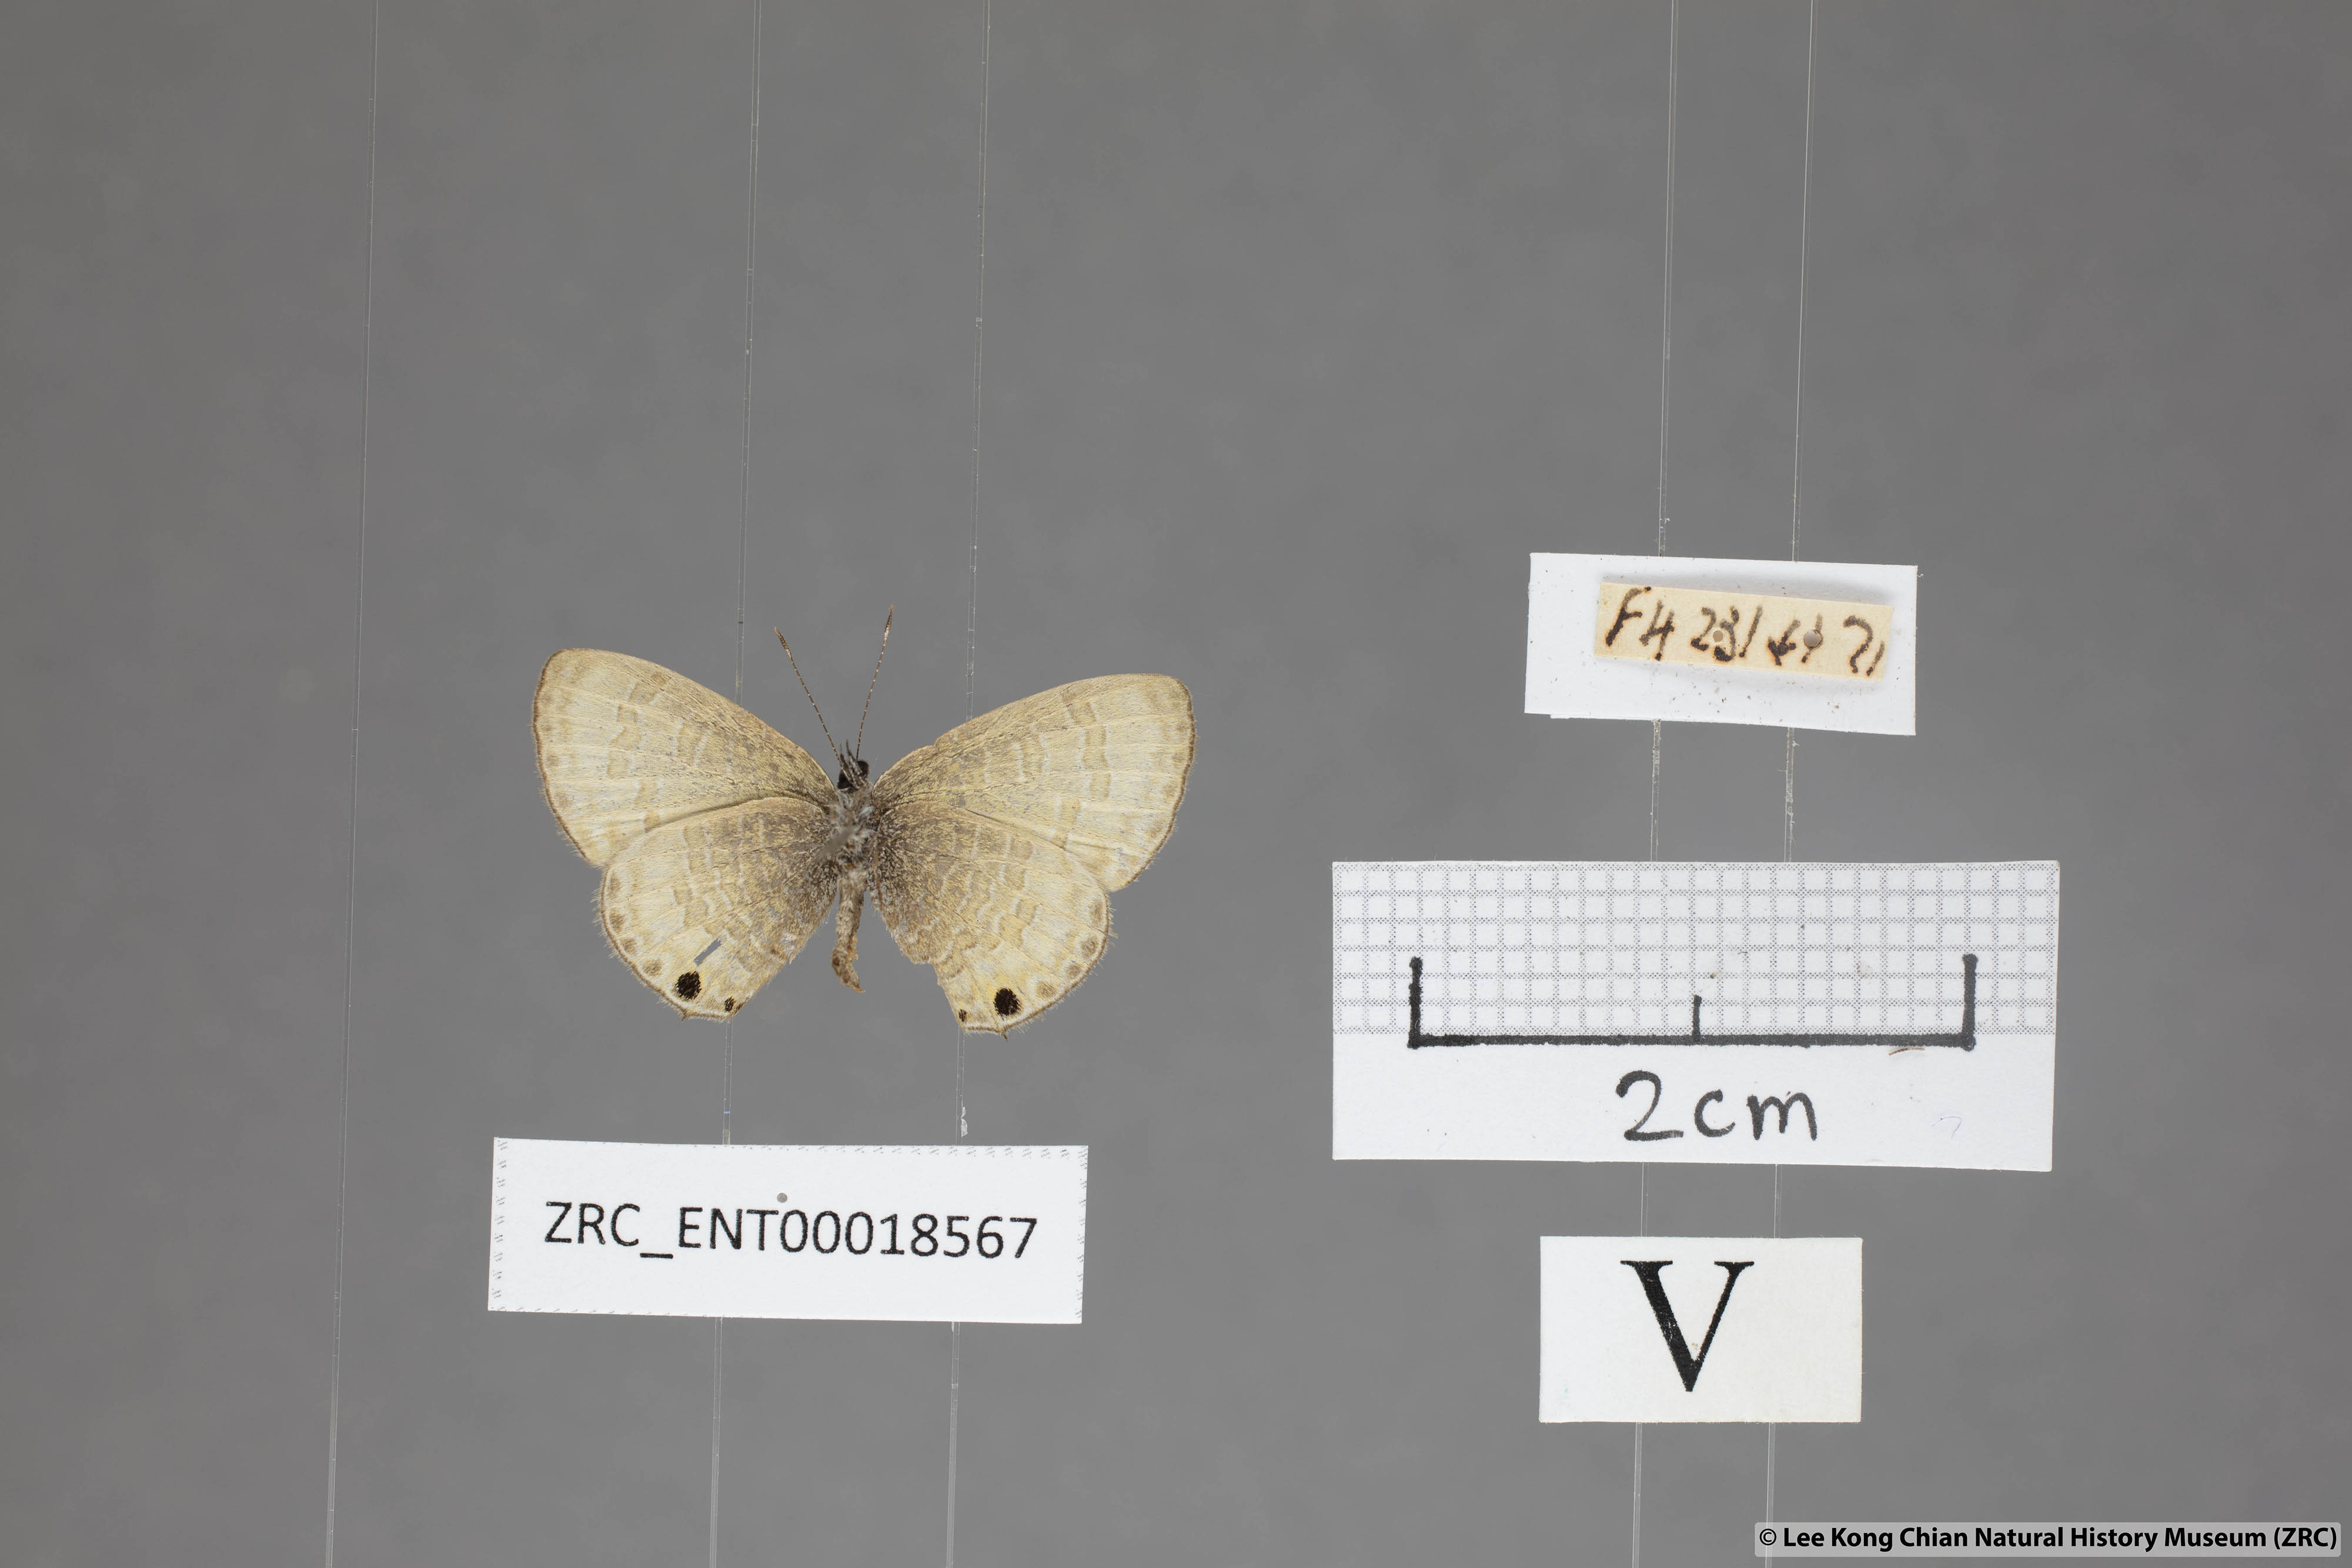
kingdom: Animalia
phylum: Arthropoda
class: Insecta
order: Lepidoptera
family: Lycaenidae
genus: Prosotas
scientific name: Prosotas bhutea
